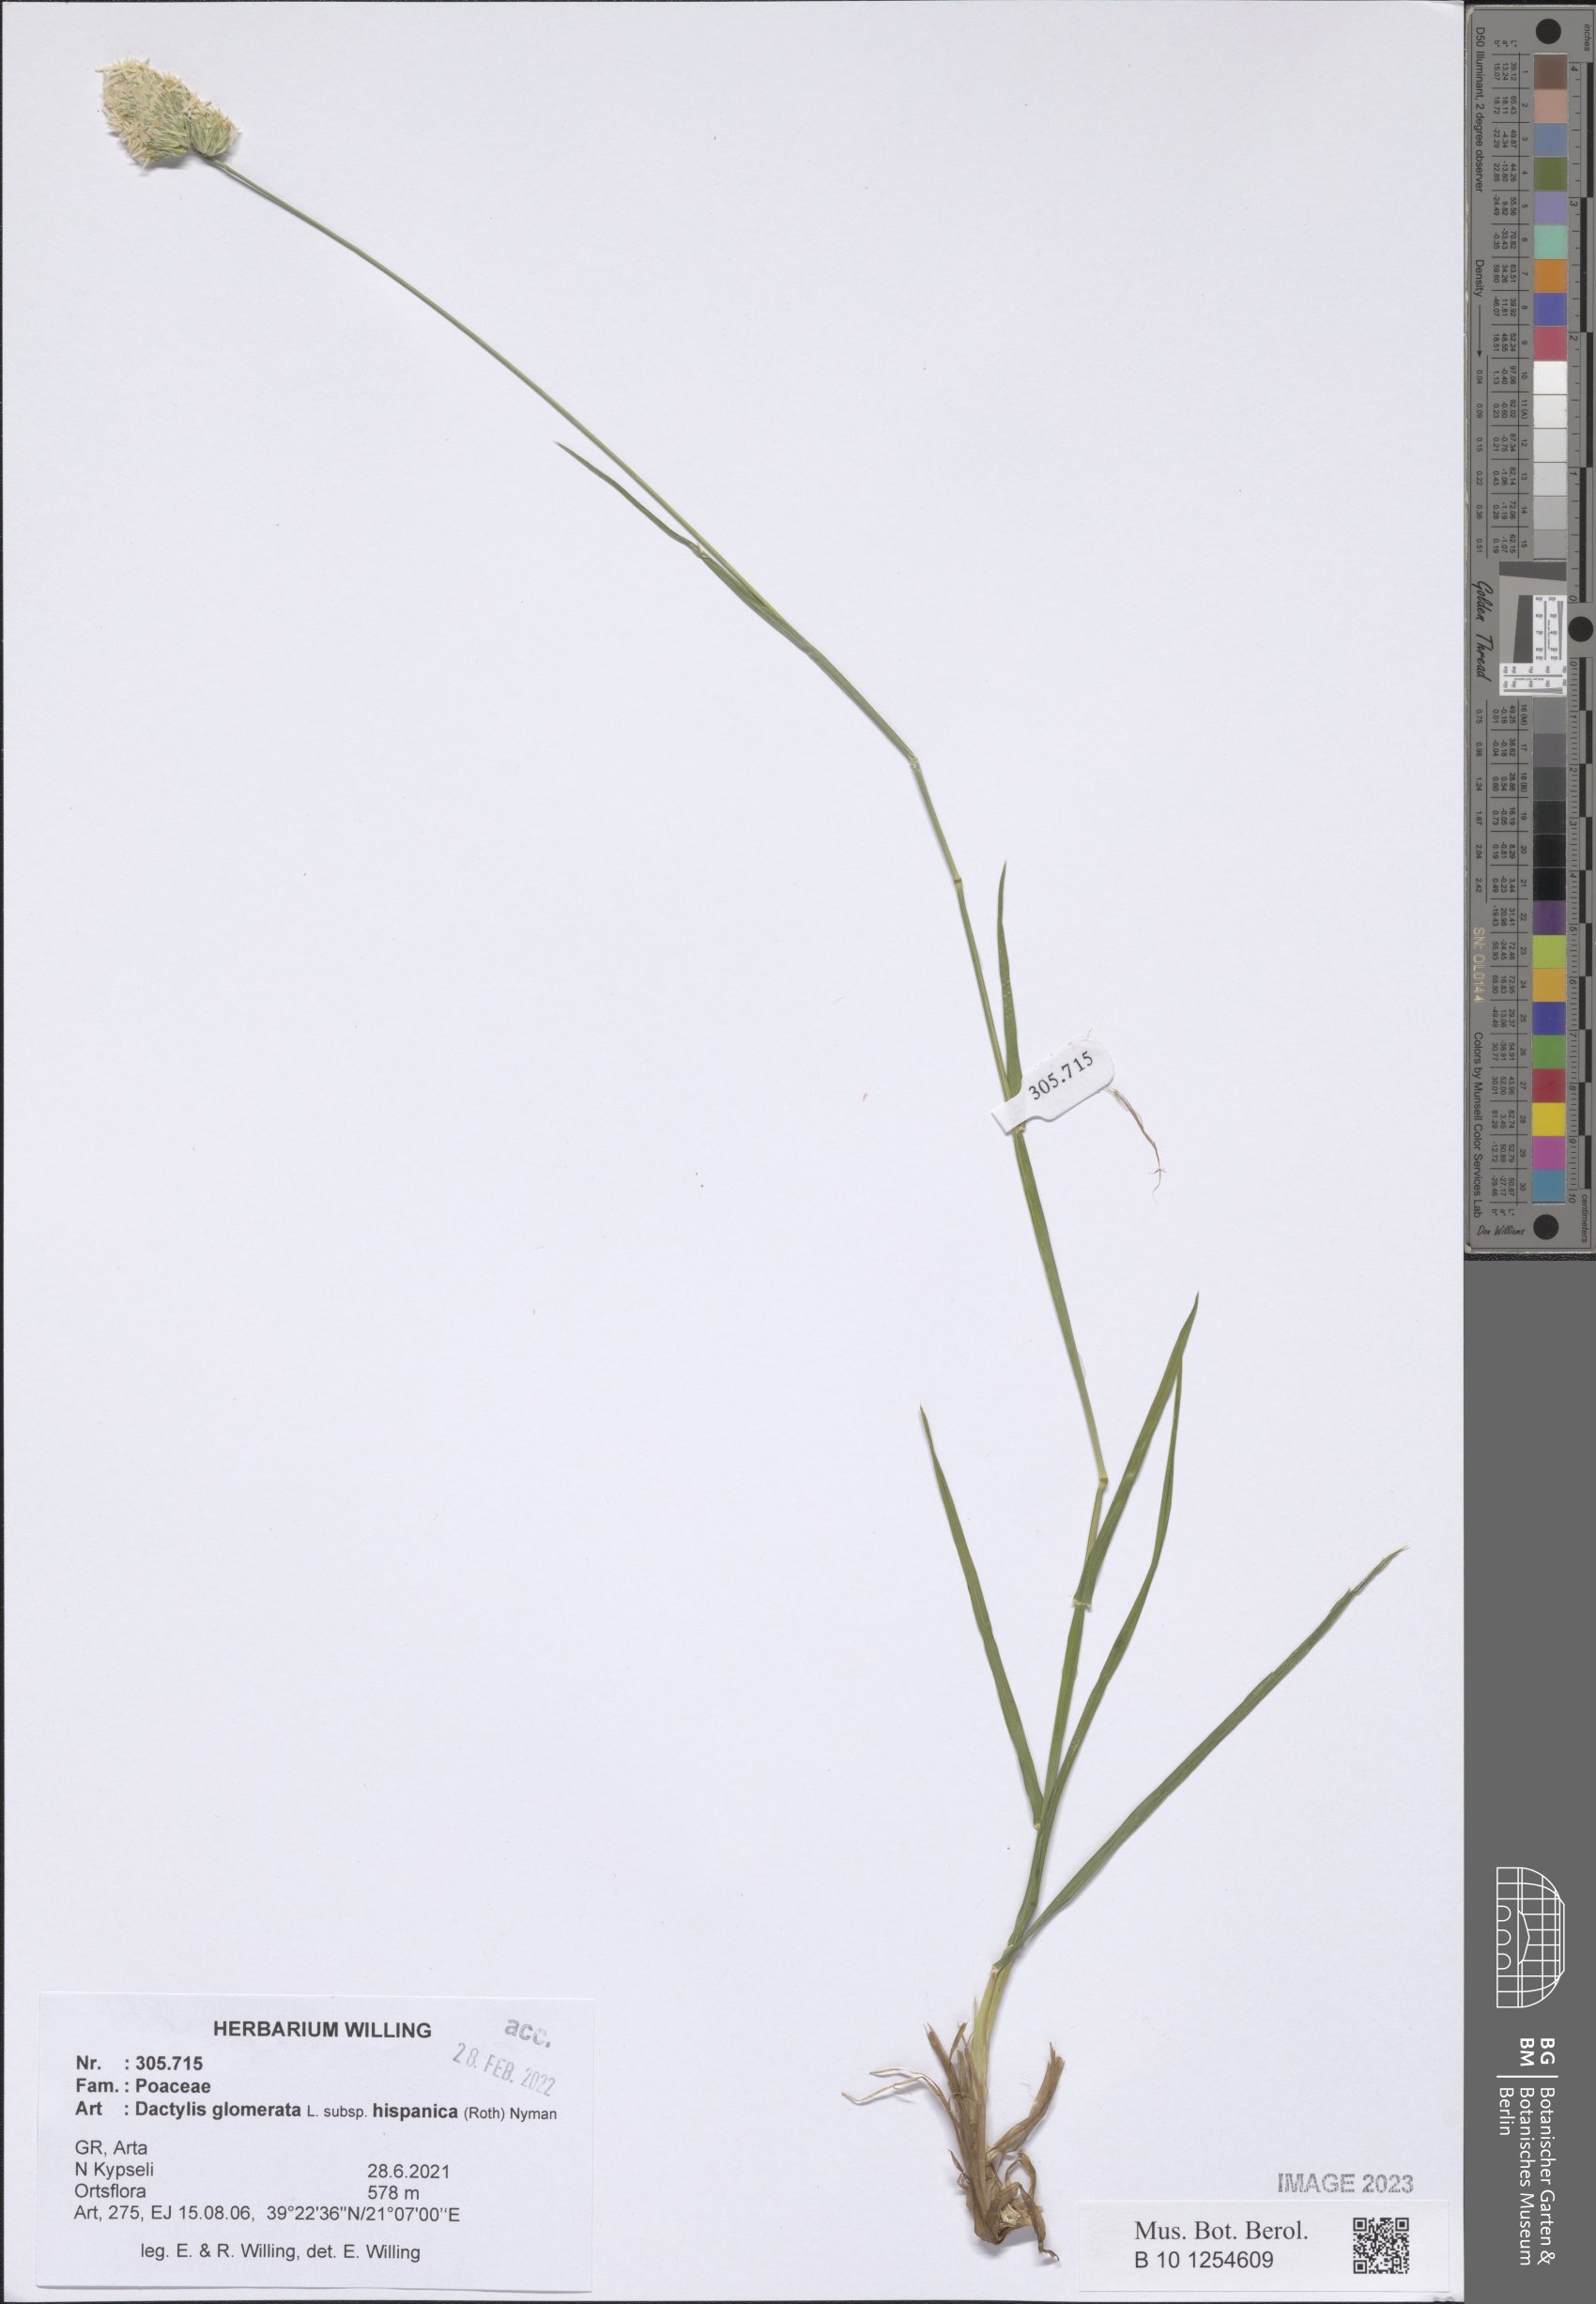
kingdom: Plantae
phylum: Tracheophyta
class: Liliopsida
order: Poales
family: Poaceae
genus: Dactylis
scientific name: Dactylis glomerata
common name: Orchardgrass
